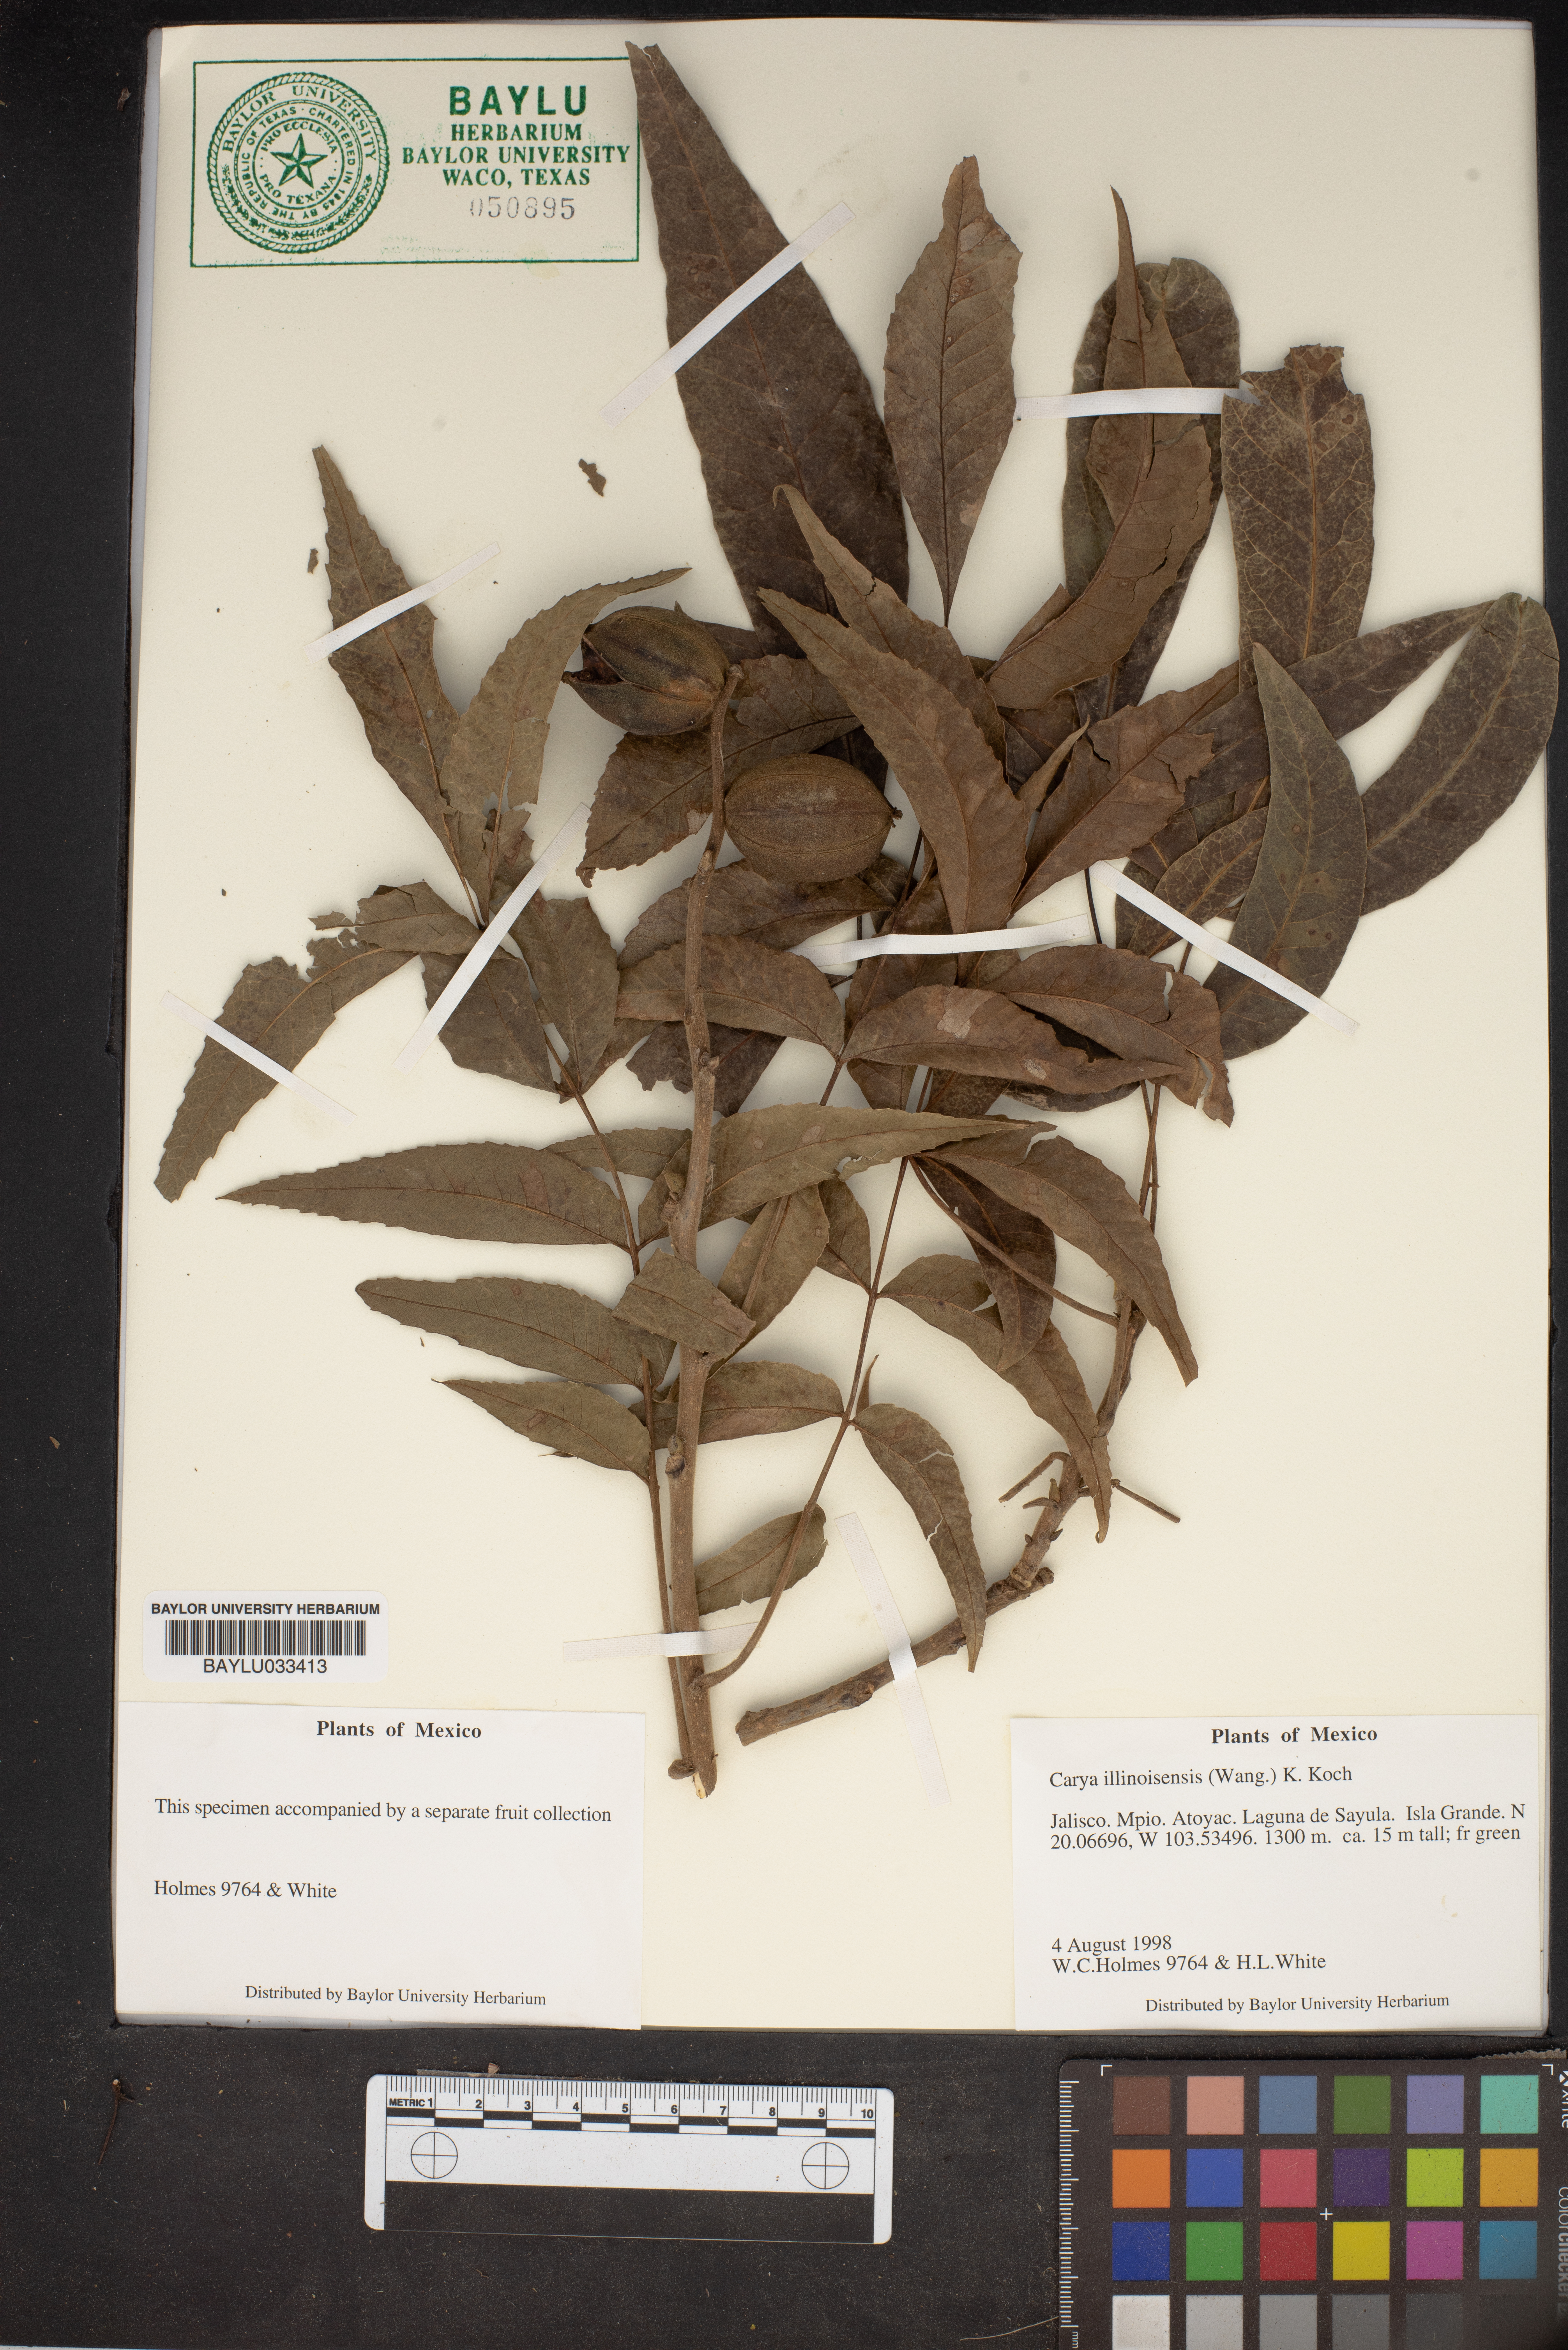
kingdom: Plantae
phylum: Tracheophyta
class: Magnoliopsida
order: Fagales
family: Juglandaceae
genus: Carya
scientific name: Carya illinoinensis
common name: Pecan
